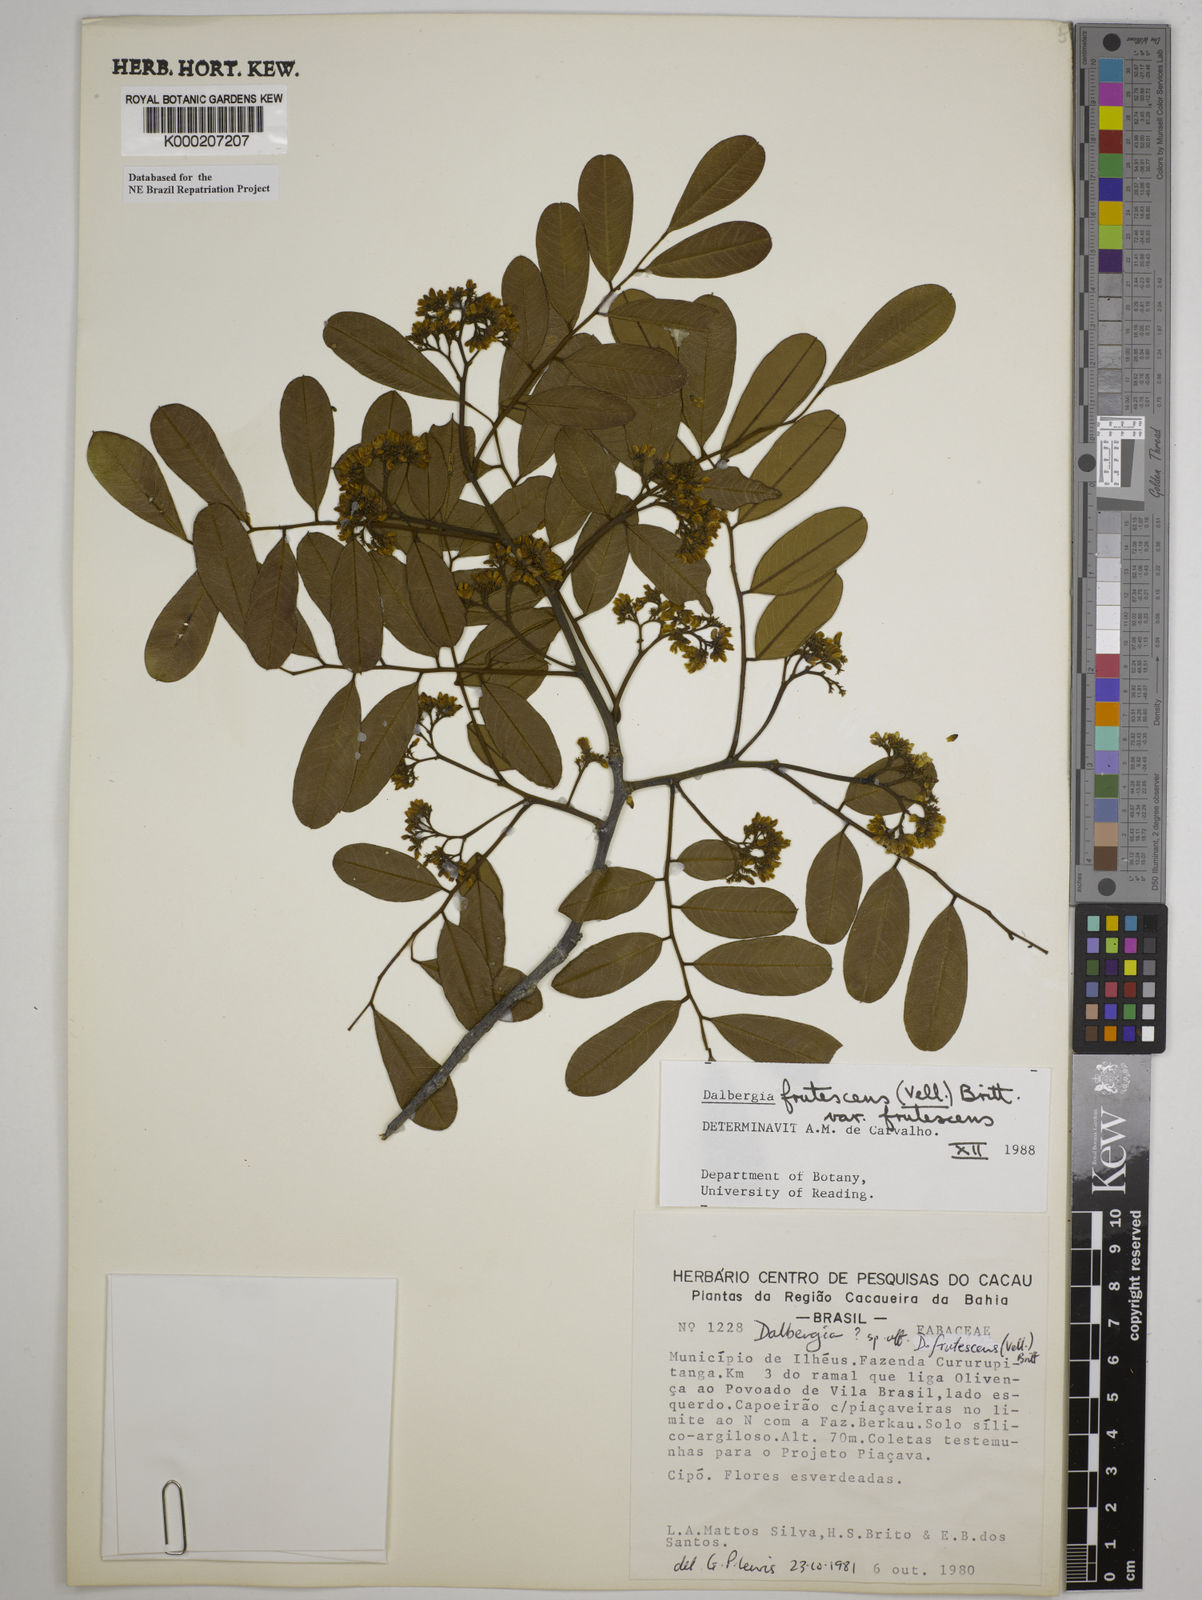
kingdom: Plantae
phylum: Tracheophyta
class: Magnoliopsida
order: Fabales
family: Fabaceae
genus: Dalbergia
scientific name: Dalbergia frutescens
